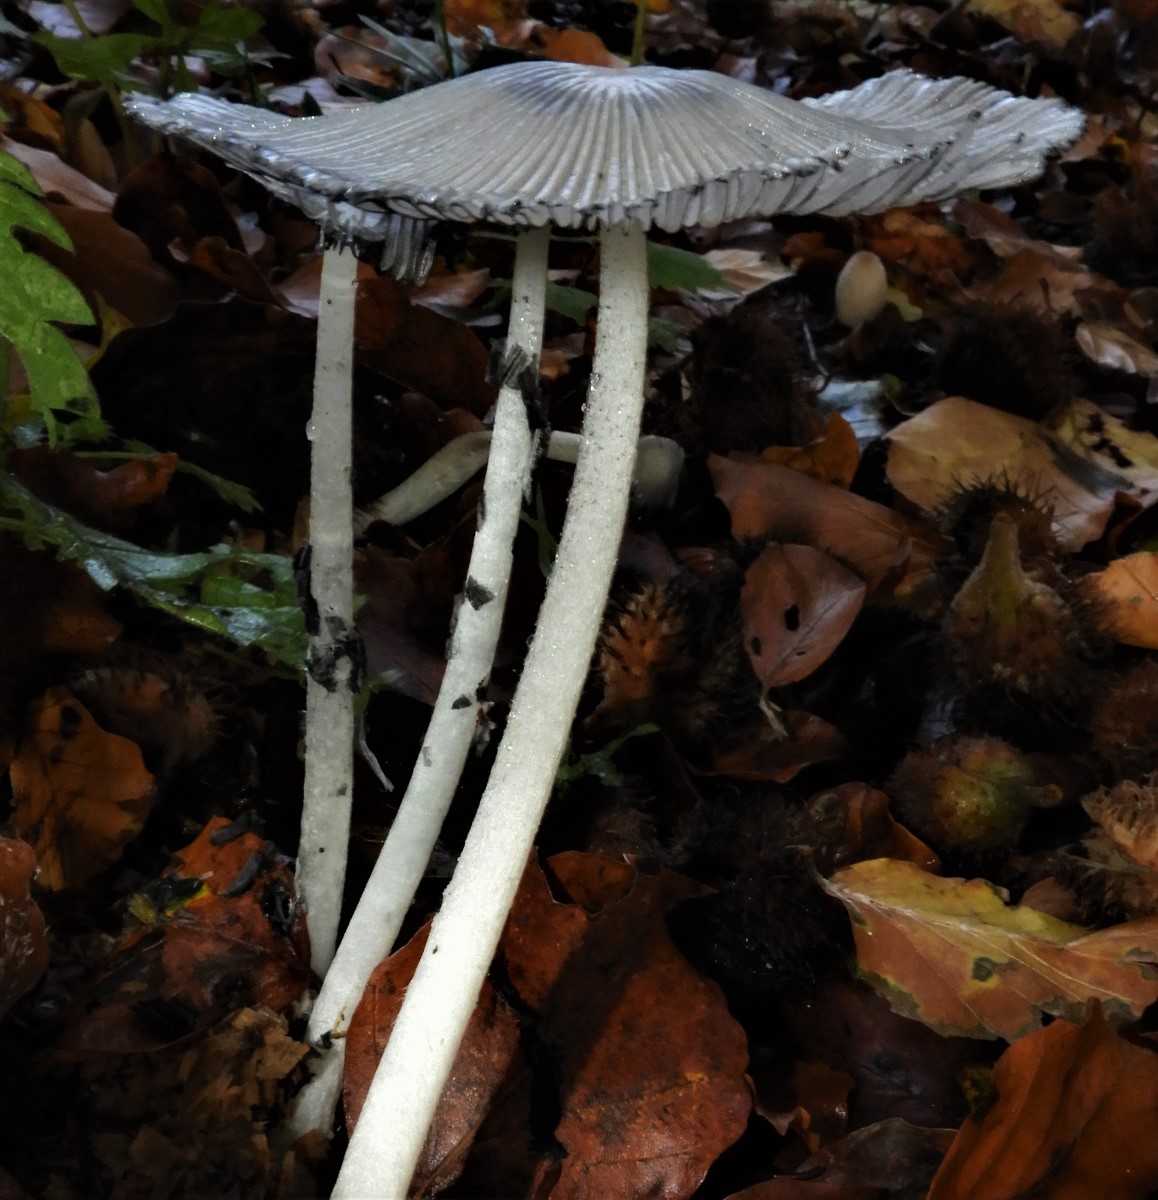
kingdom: Fungi
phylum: Basidiomycota
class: Agaricomycetes
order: Agaricales
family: Psathyrellaceae
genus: Coprinopsis
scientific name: Coprinopsis lagopus
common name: dunstokket blækhat
